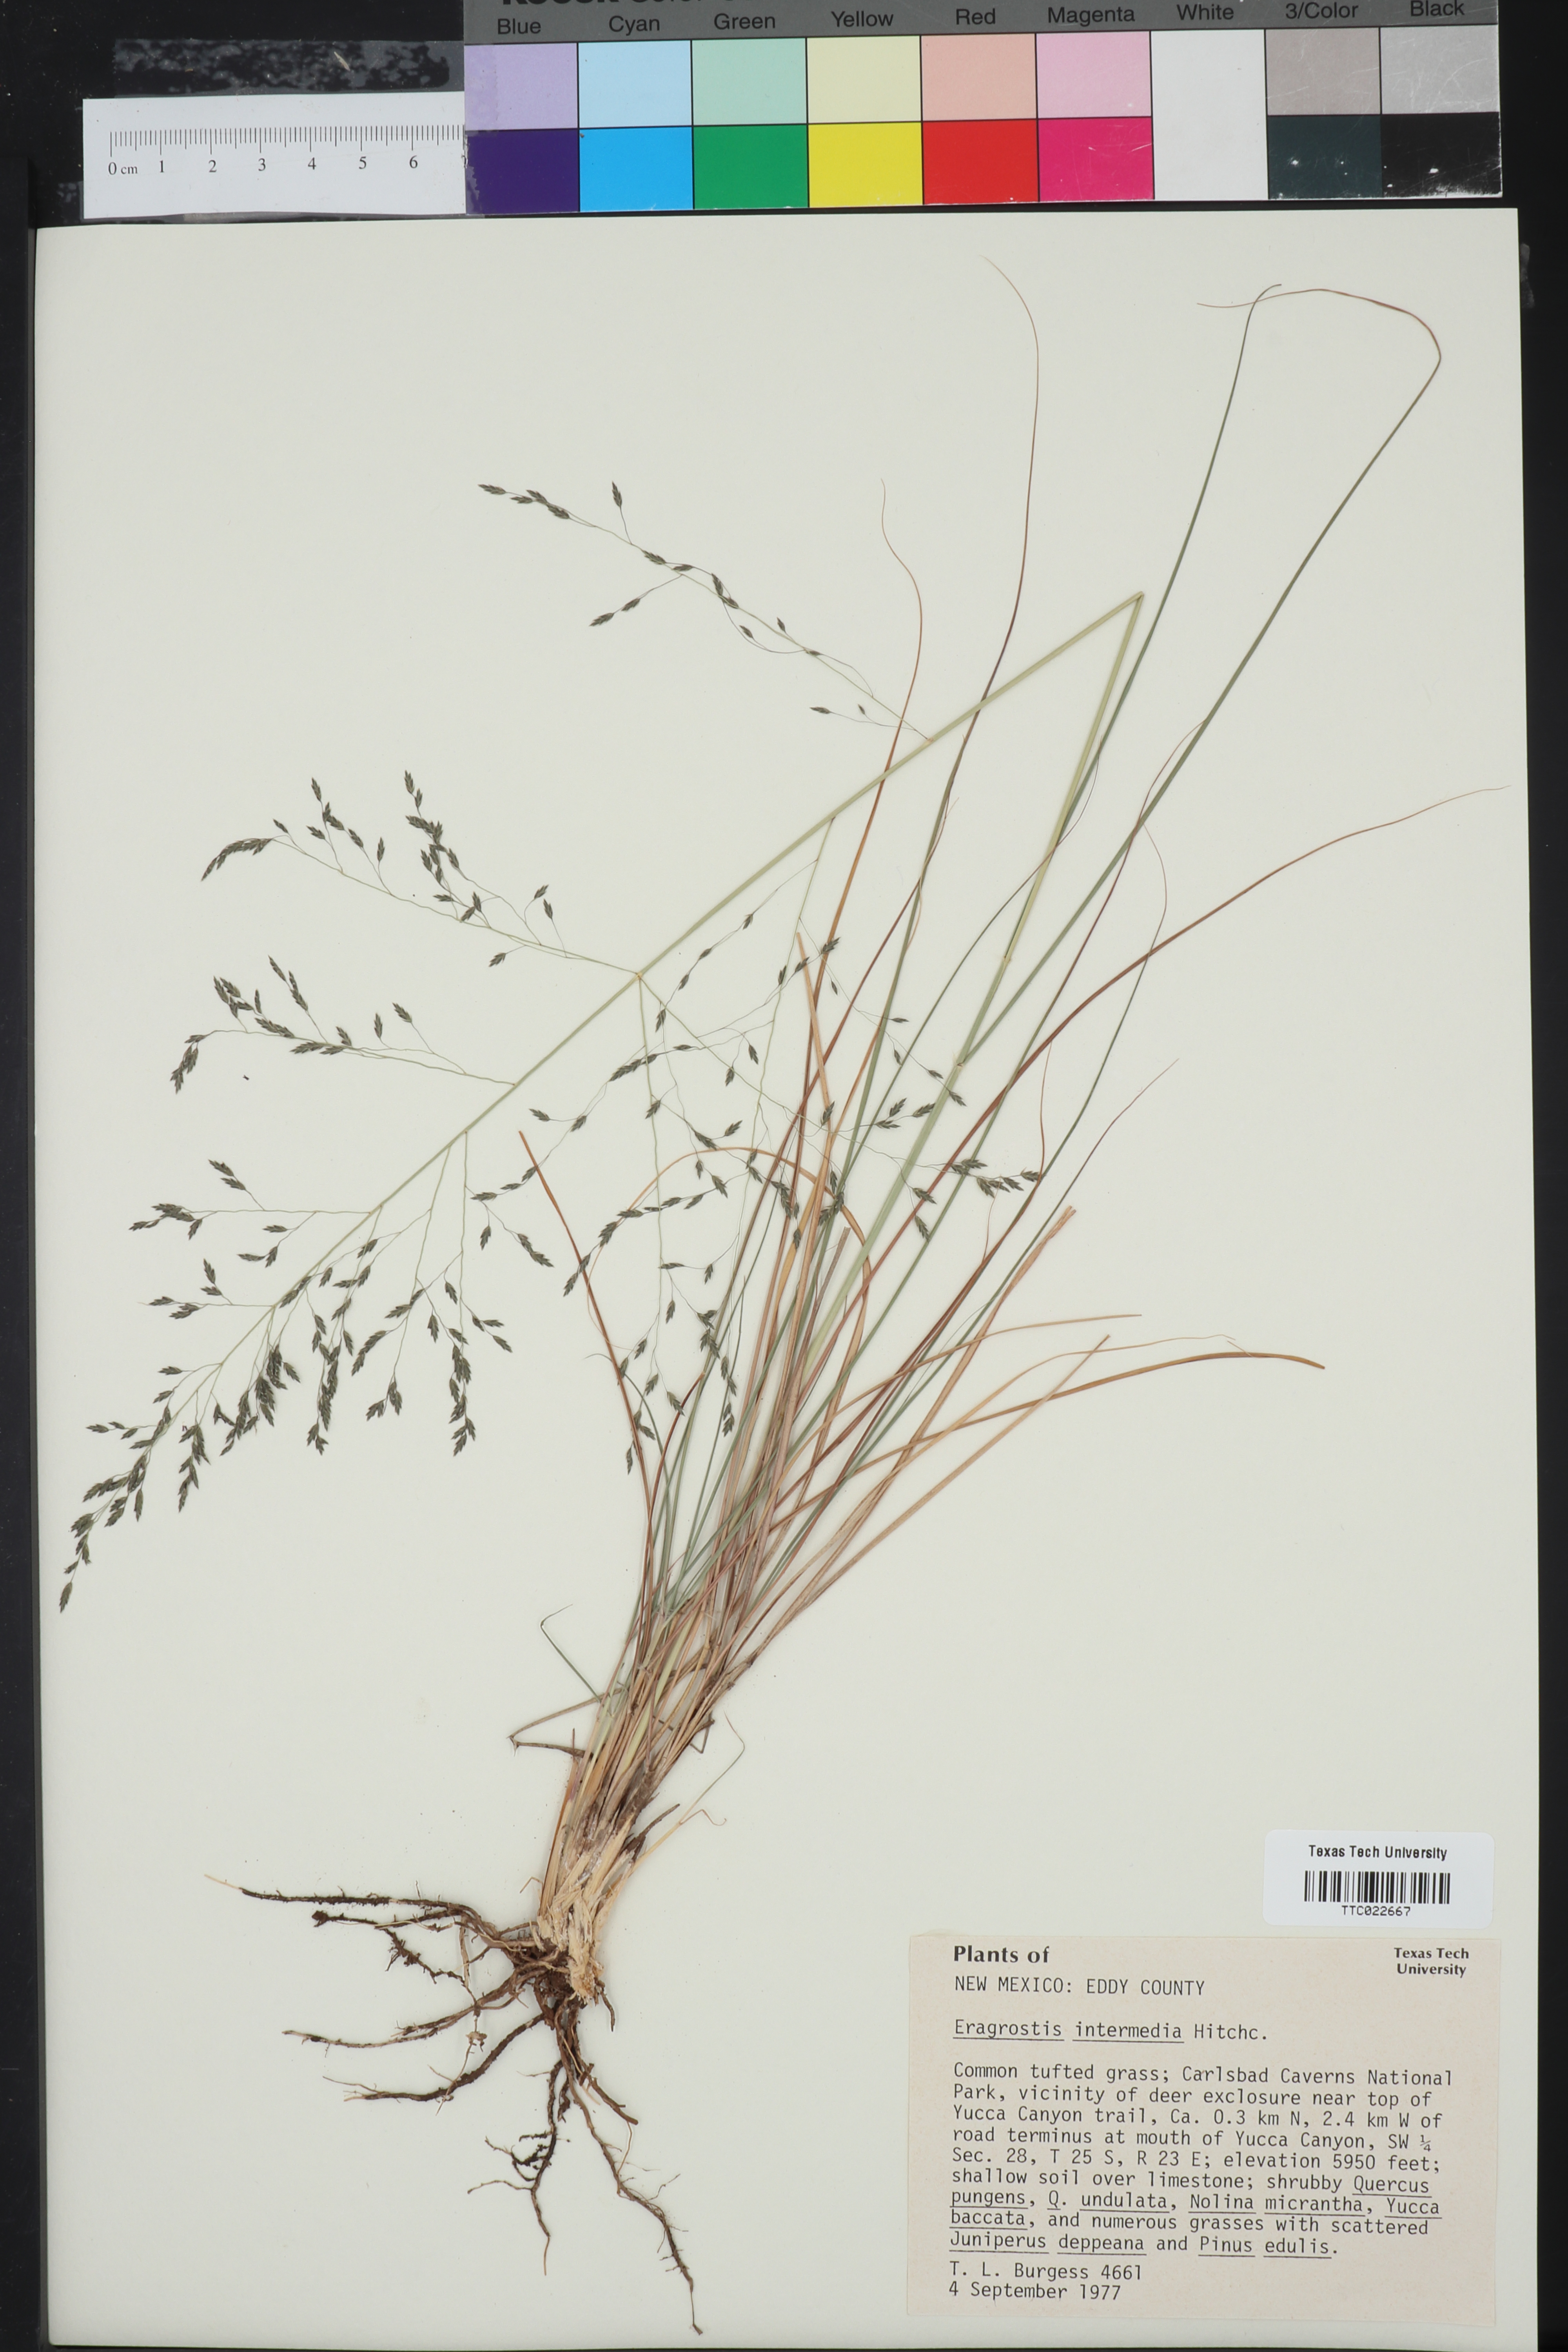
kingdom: Plantae
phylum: Tracheophyta
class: Liliopsida
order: Poales
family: Poaceae
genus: Eragrostis
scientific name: Eragrostis intermedia
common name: Plains love grass
